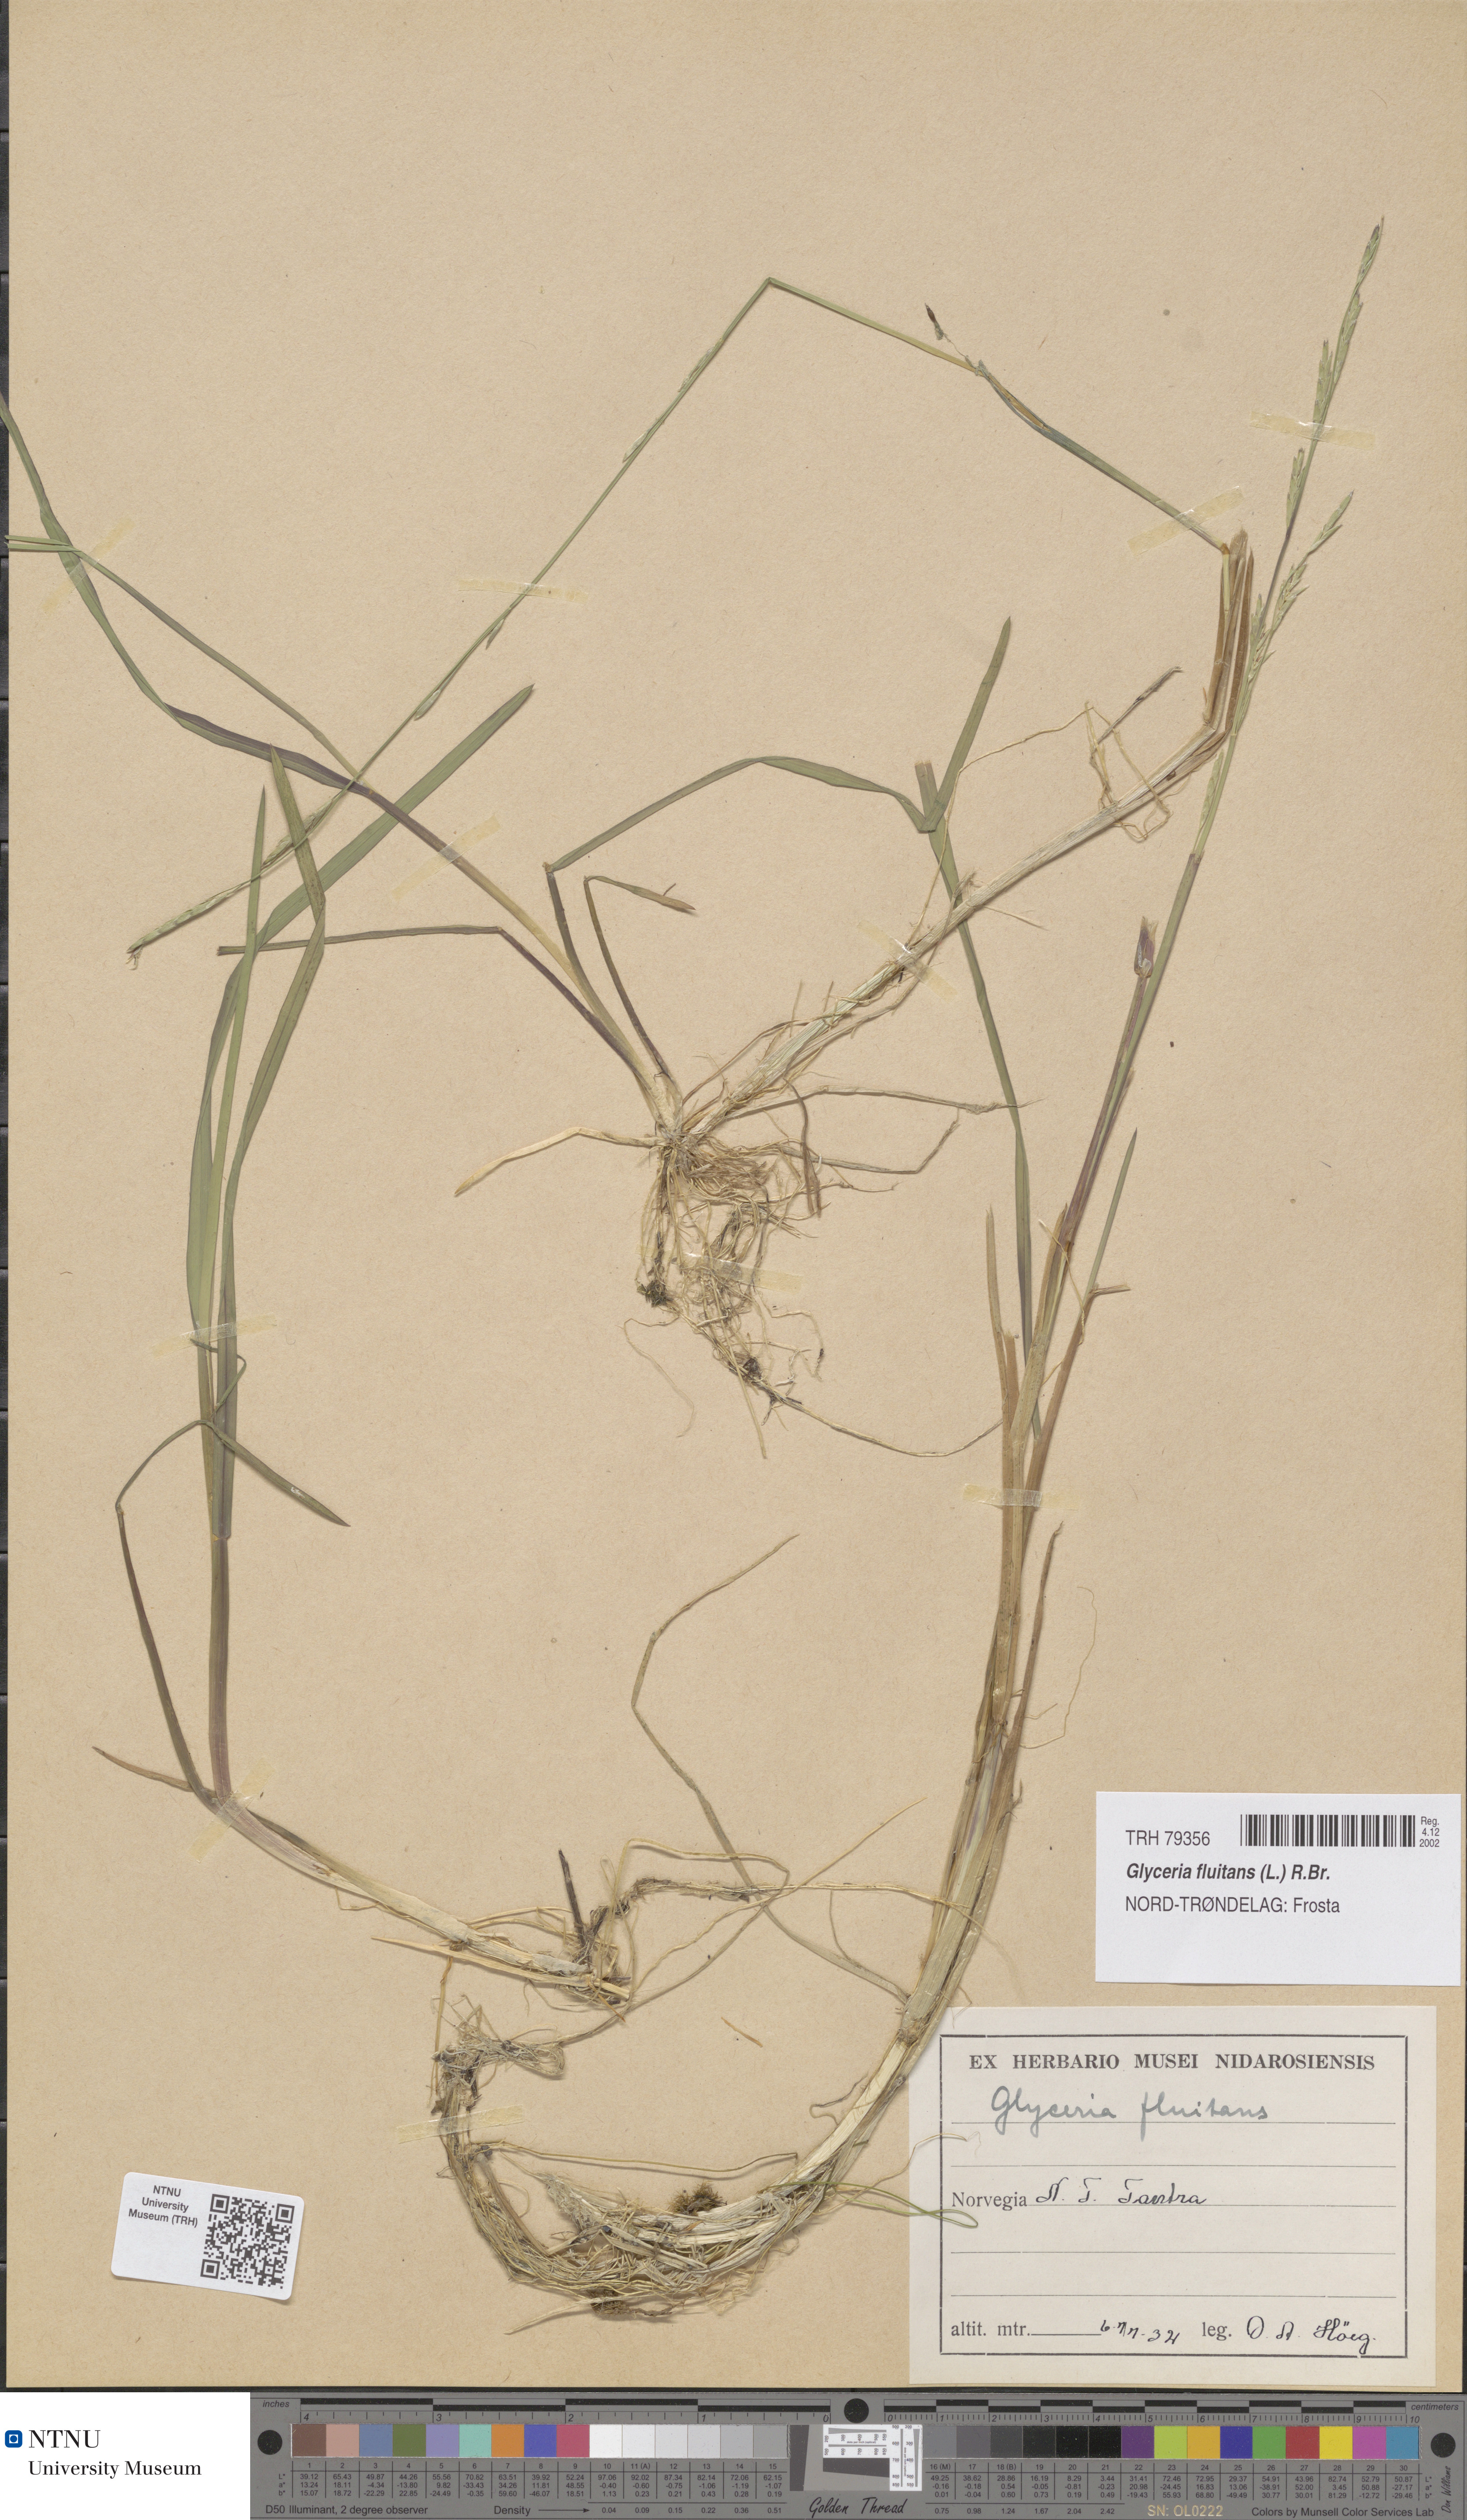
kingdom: Plantae
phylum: Tracheophyta
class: Liliopsida
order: Poales
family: Poaceae
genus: Glyceria
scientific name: Glyceria fluitans
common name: Floating sweet-grass
